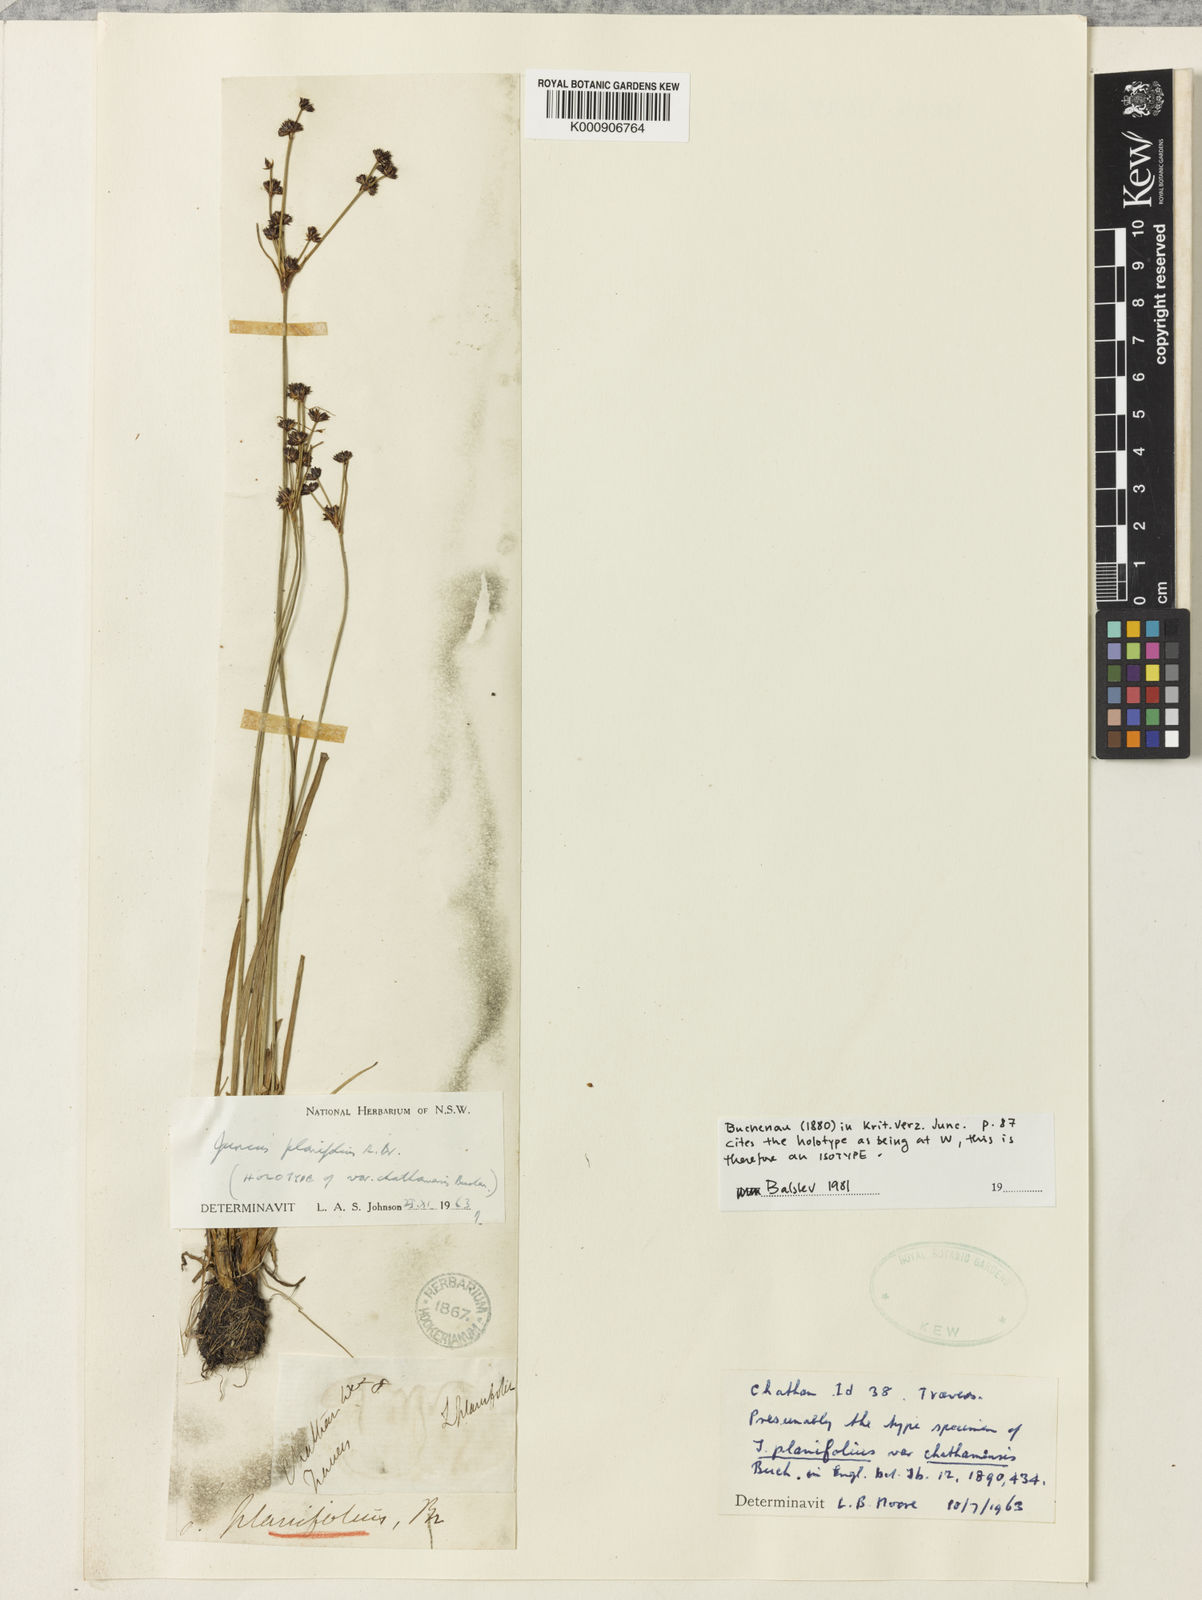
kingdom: Plantae
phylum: Tracheophyta
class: Liliopsida
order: Poales
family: Juncaceae
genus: Juncus
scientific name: Juncus planifolius
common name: Broadleaf rush
